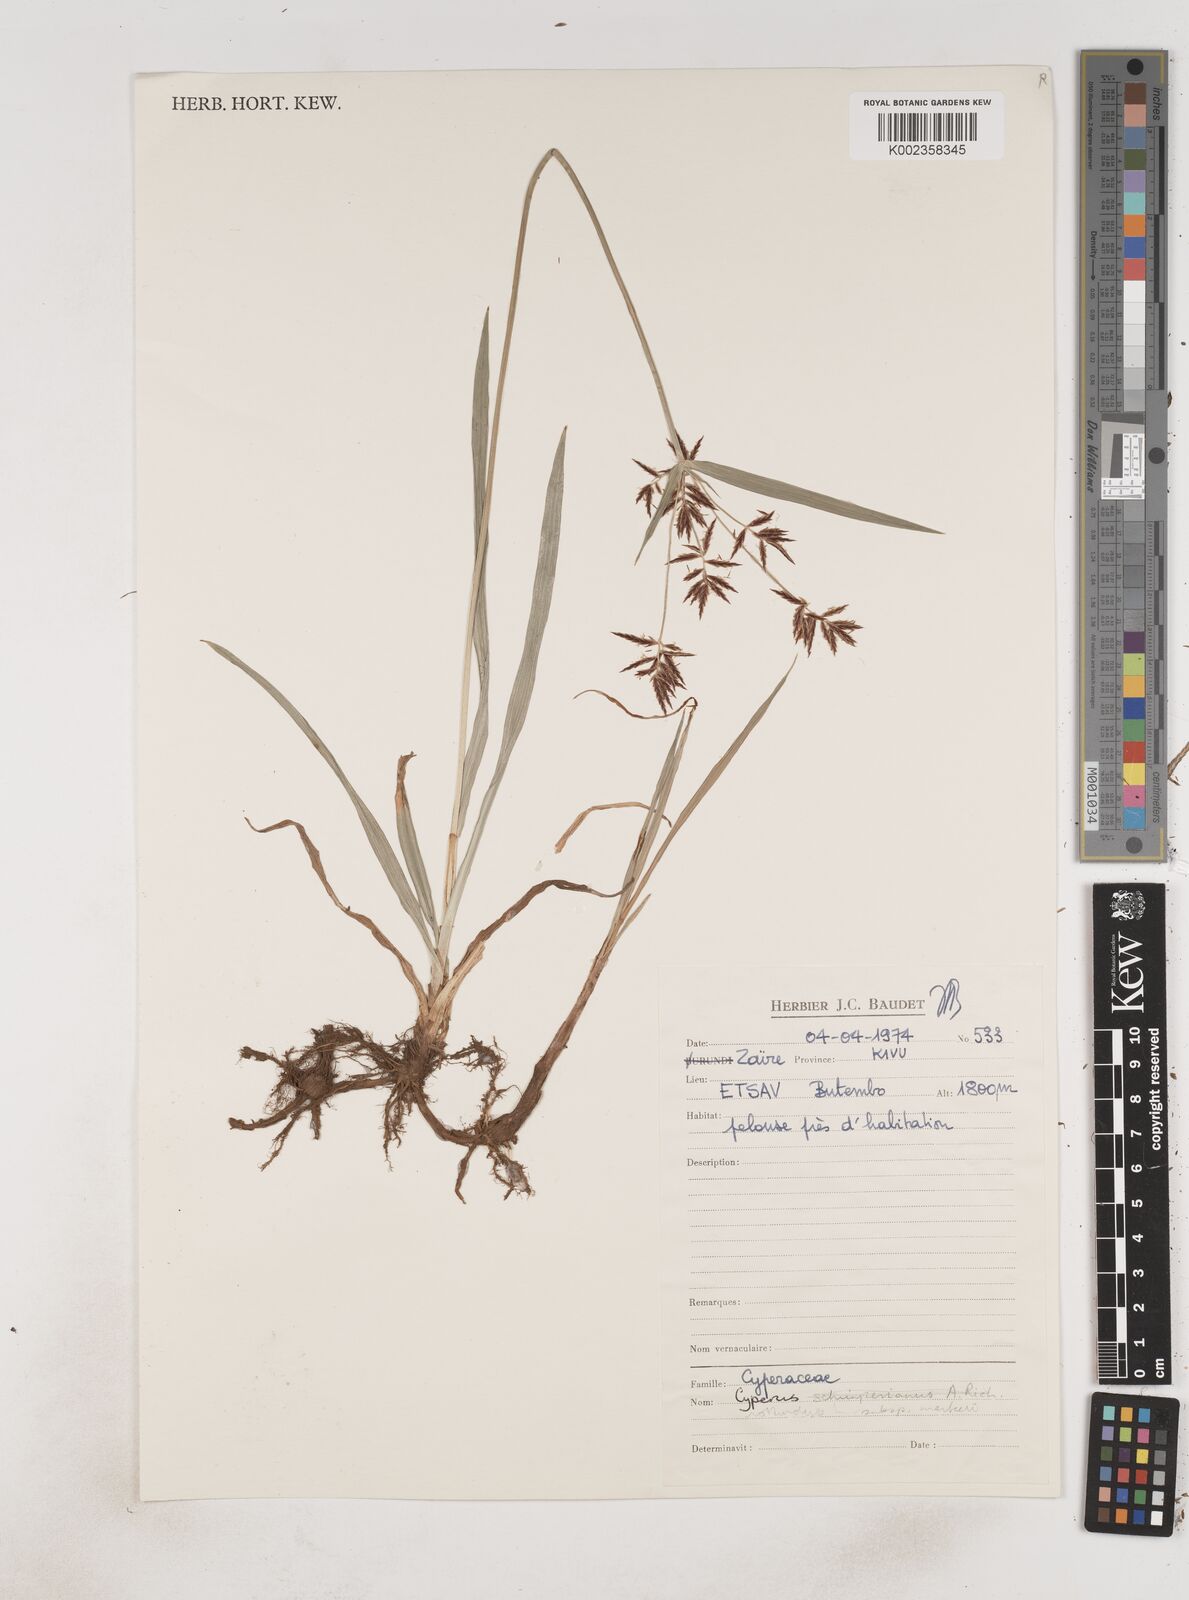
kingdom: Plantae
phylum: Tracheophyta
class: Liliopsida
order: Poales
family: Cyperaceae
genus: Cyperus
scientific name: Cyperus tuberosus
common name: Nut grass
